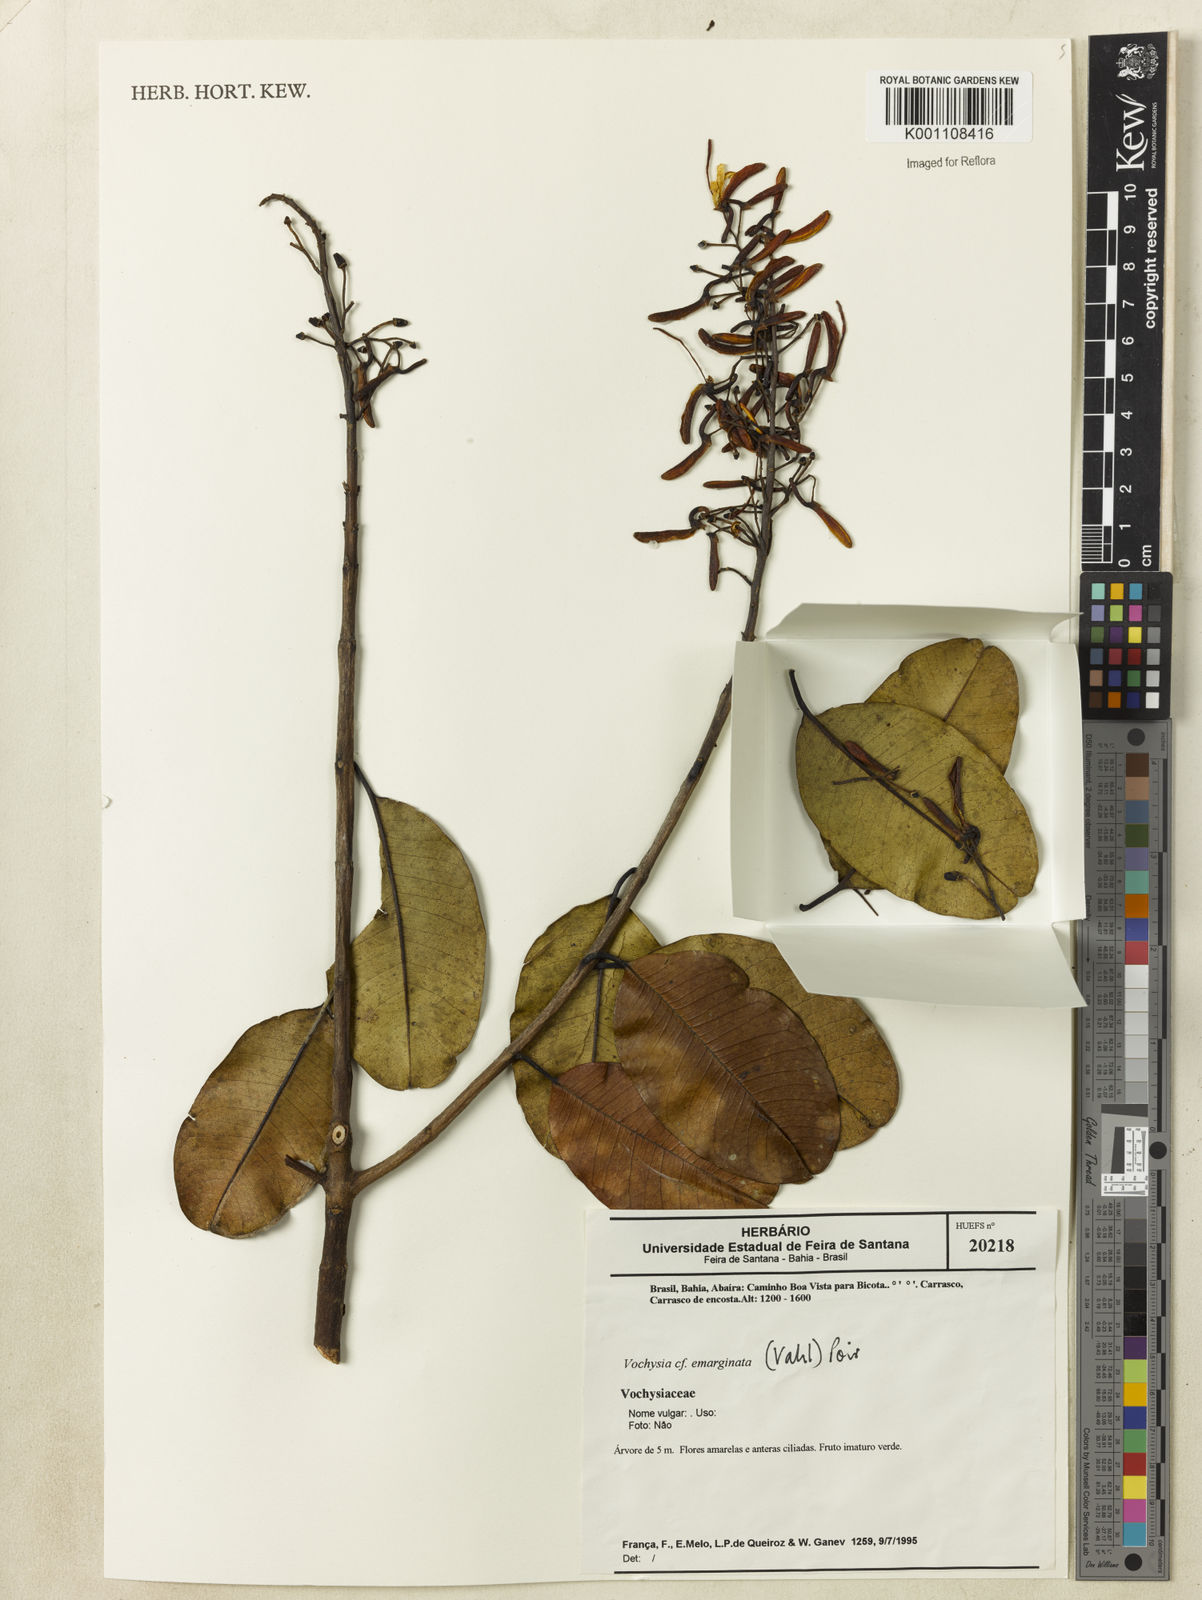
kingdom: Plantae
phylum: Tracheophyta
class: Magnoliopsida
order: Myrtales
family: Vochysiaceae
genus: Vochysia
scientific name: Vochysia
